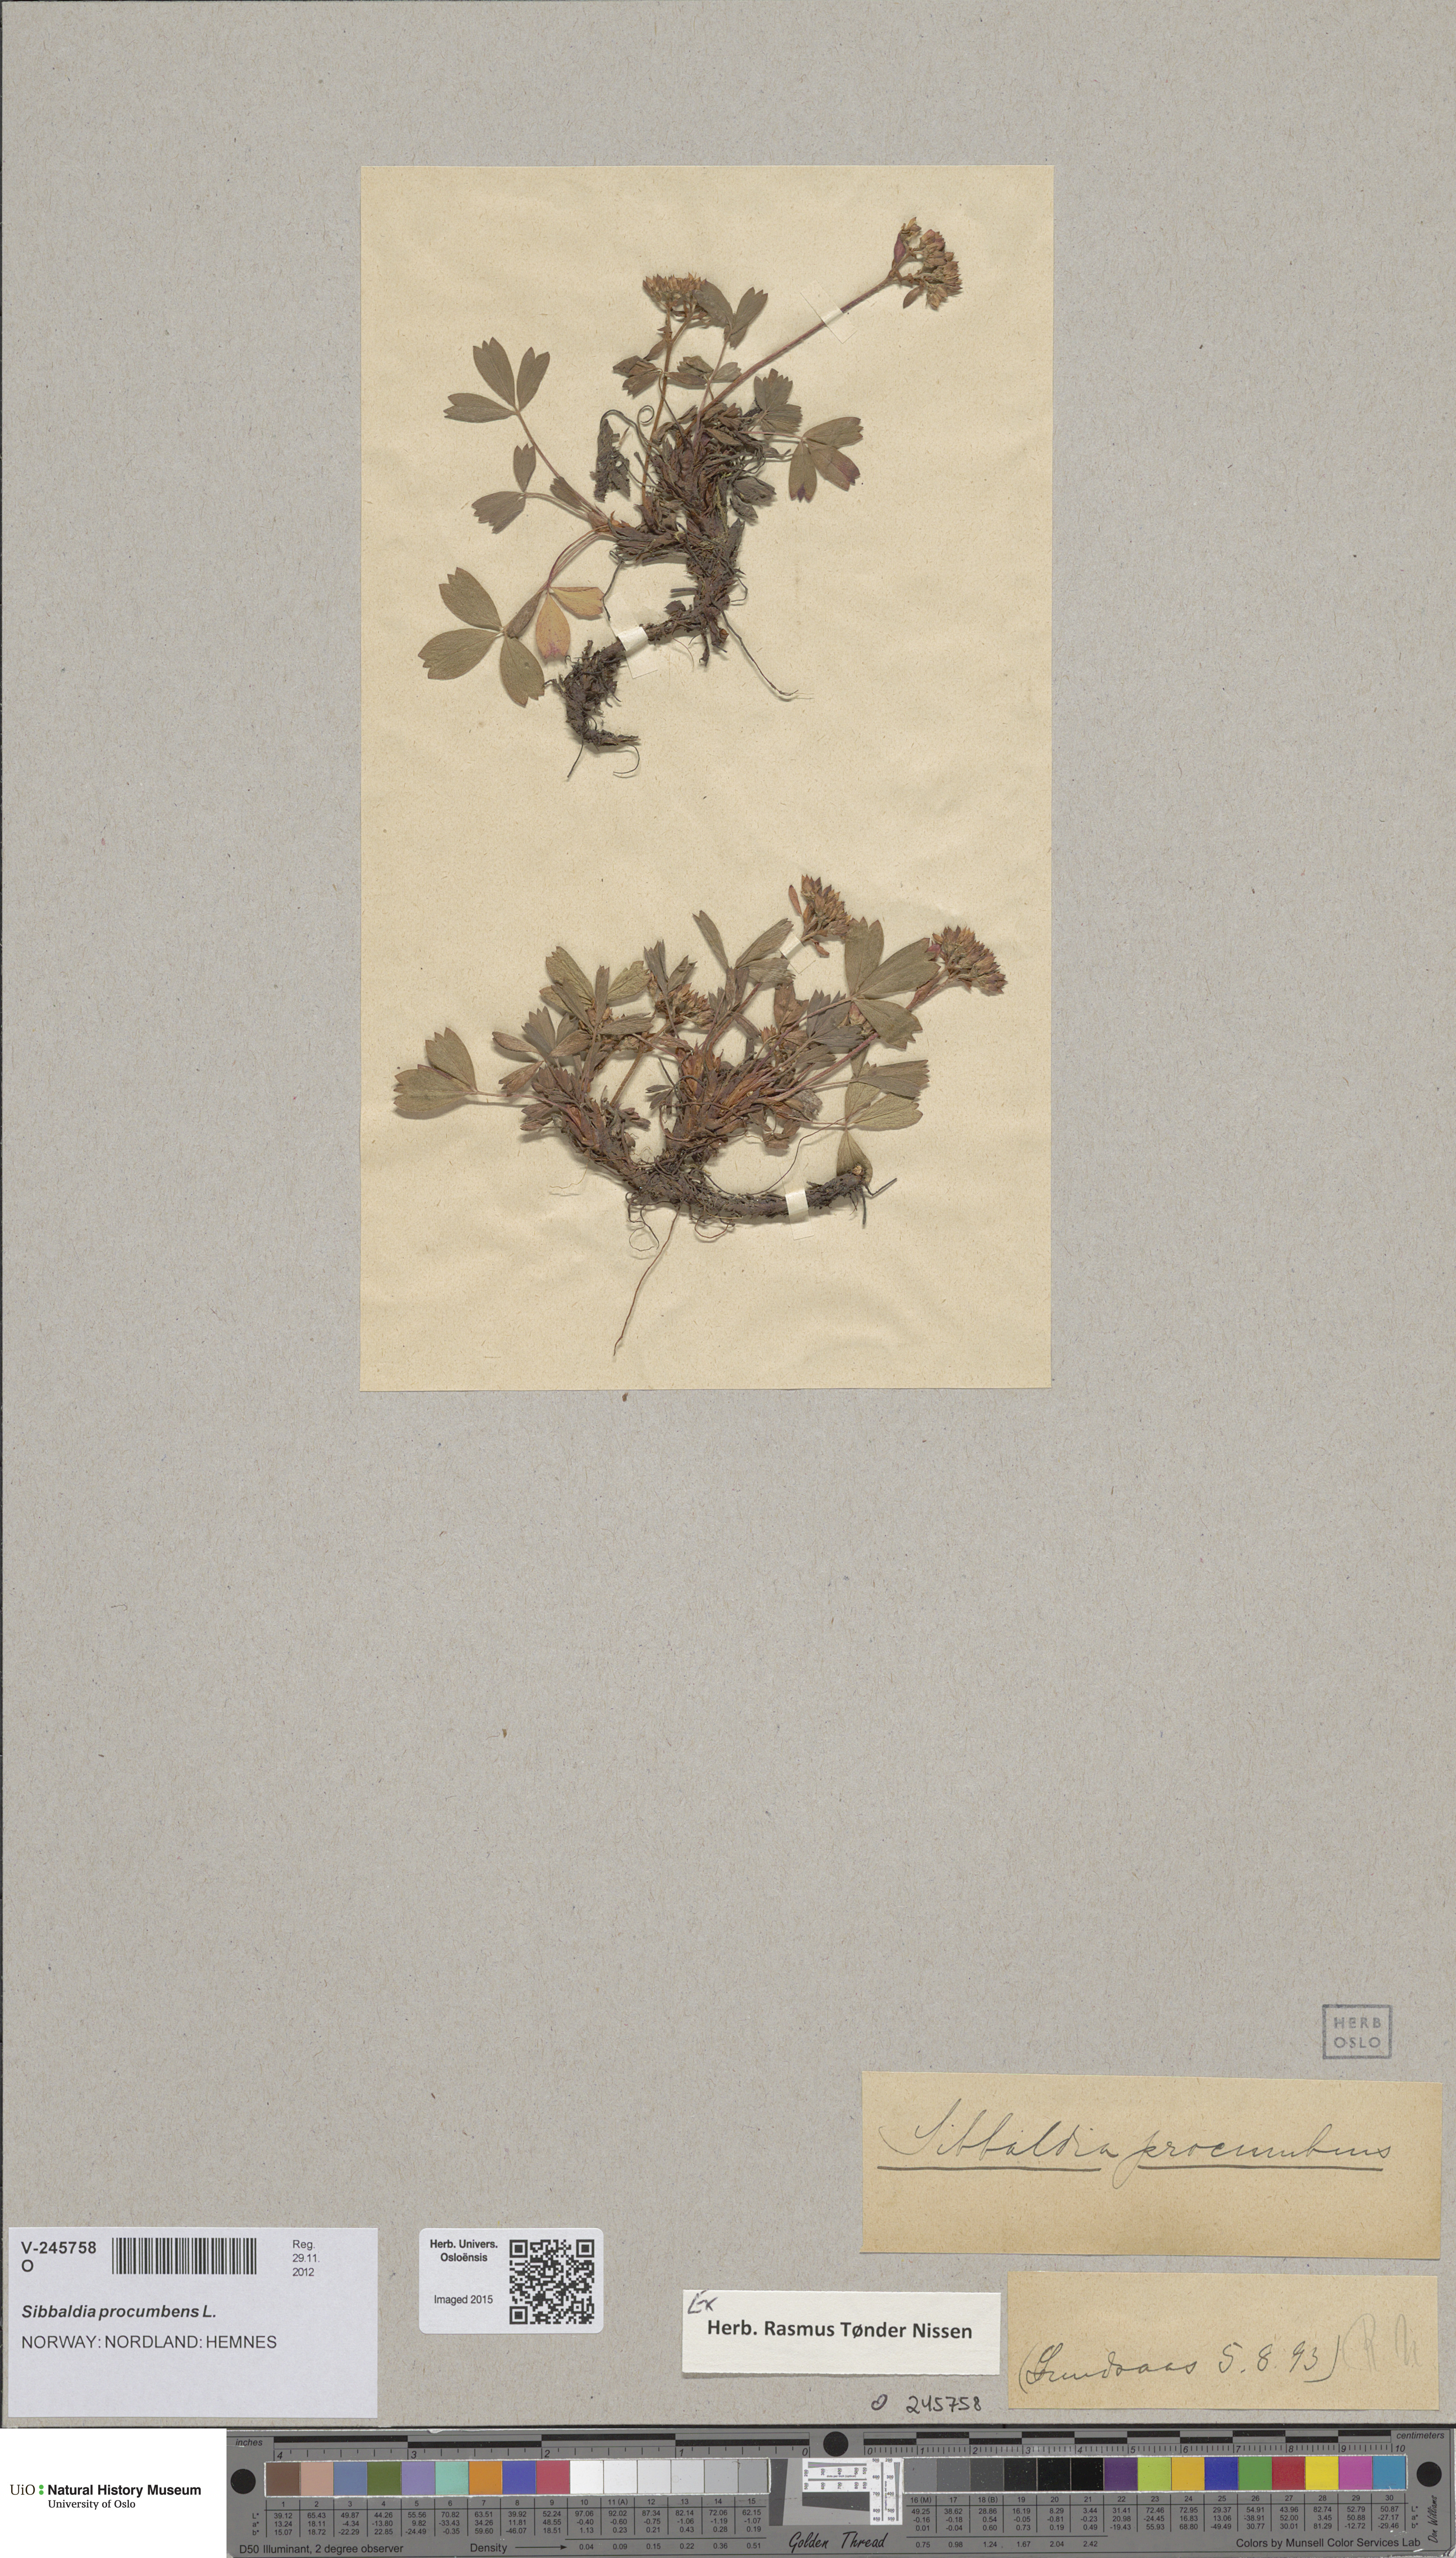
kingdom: Plantae
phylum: Tracheophyta
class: Magnoliopsida
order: Rosales
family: Rosaceae
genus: Sibbaldia
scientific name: Sibbaldia procumbens
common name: Creeping sibbaldia
